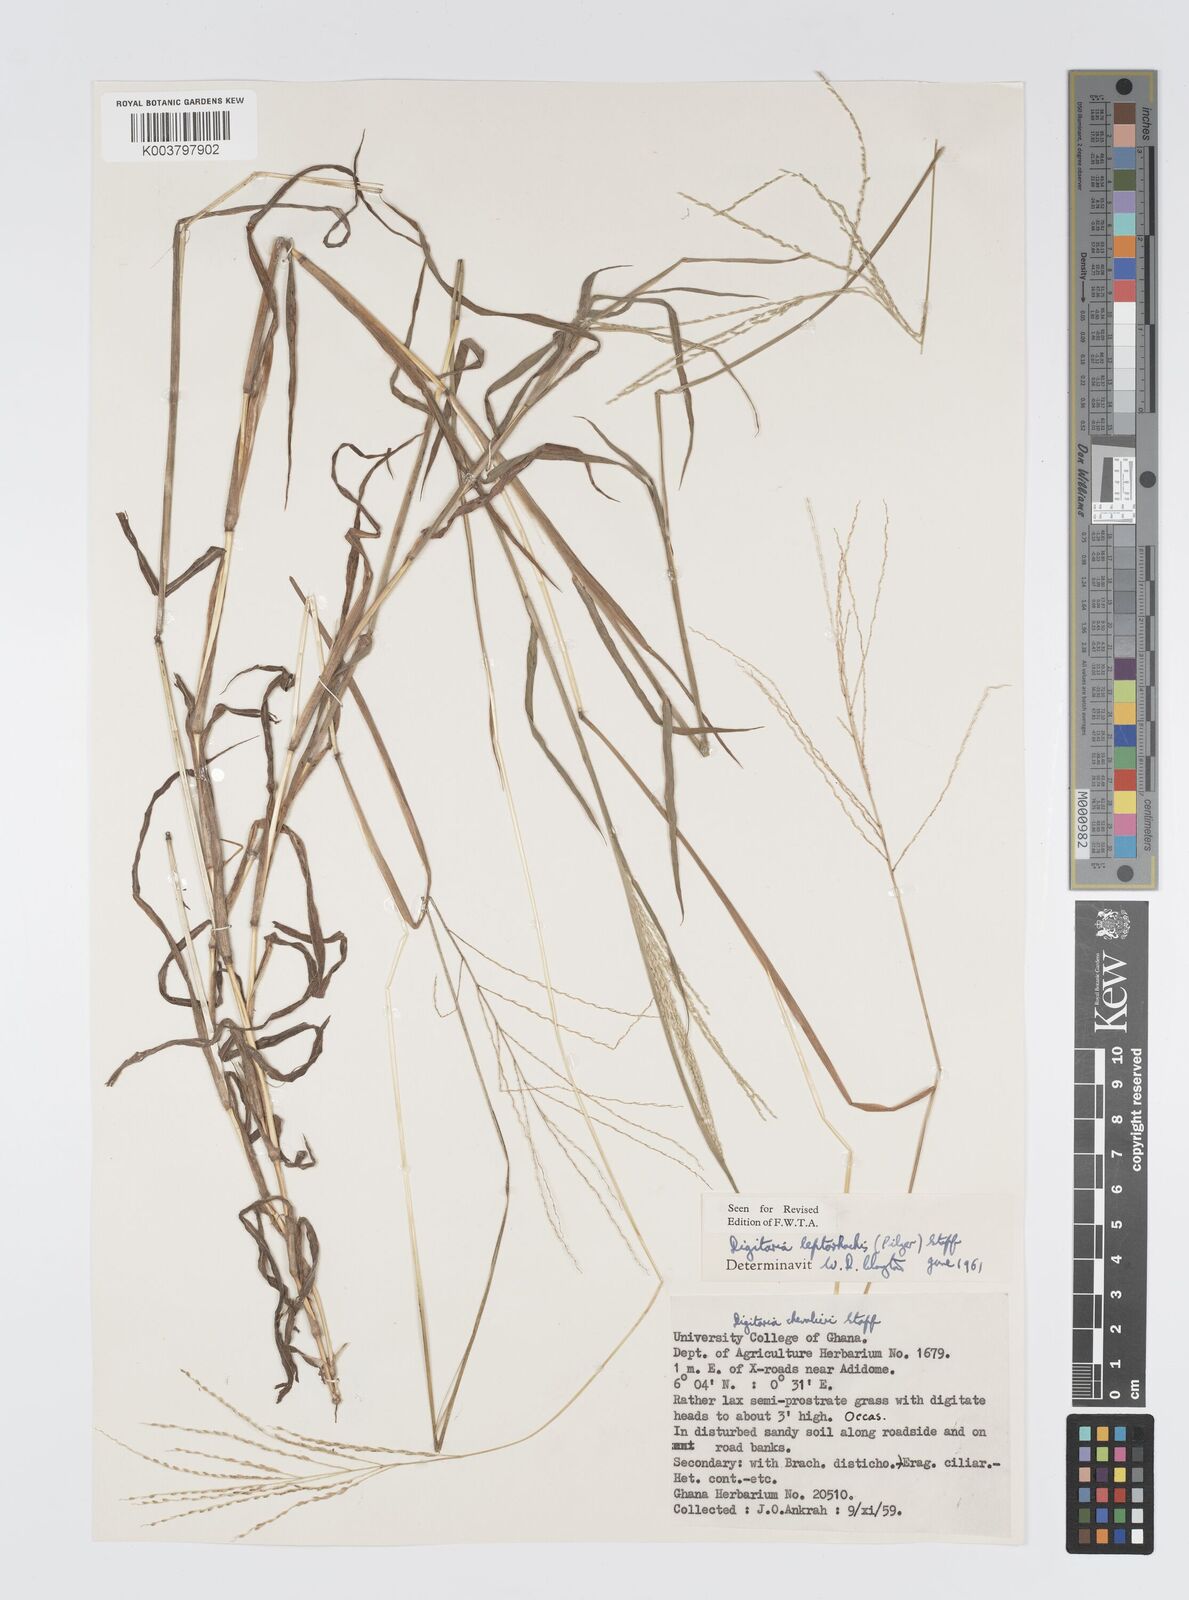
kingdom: Plantae
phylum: Tracheophyta
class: Liliopsida
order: Poales
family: Poaceae
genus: Digitaria
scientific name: Digitaria leptorhachis
